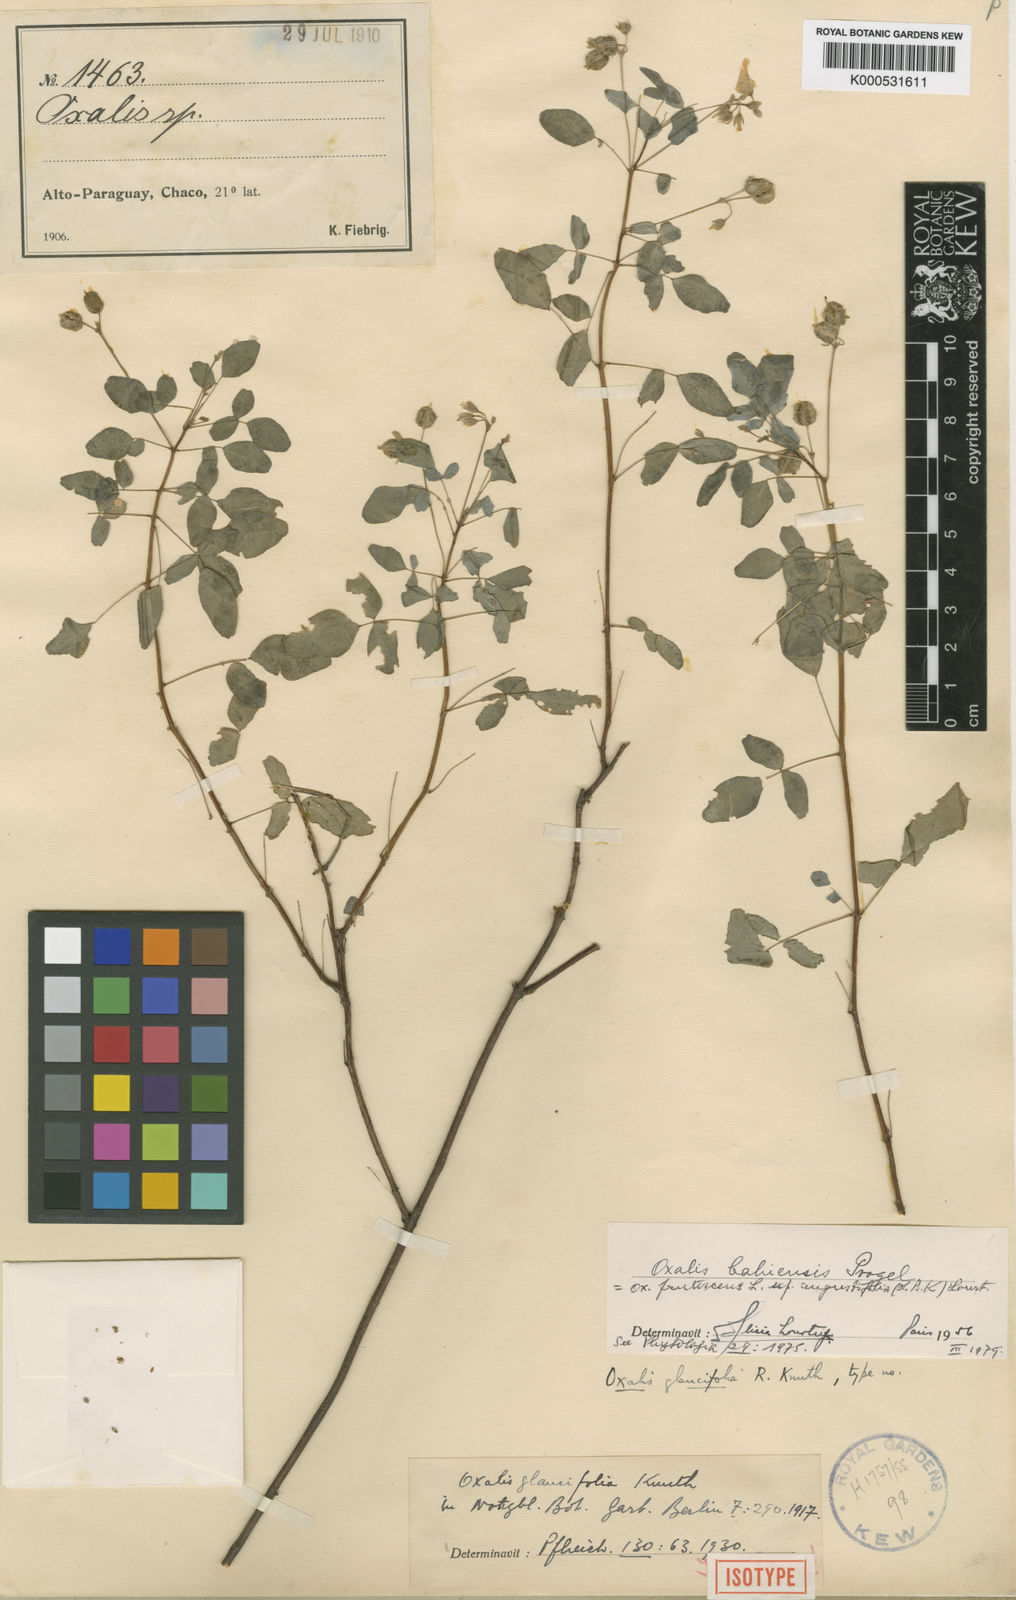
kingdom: Plantae
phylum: Tracheophyta
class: Magnoliopsida
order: Oxalidales
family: Oxalidaceae
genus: Oxalis
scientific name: Oxalis frutescens
